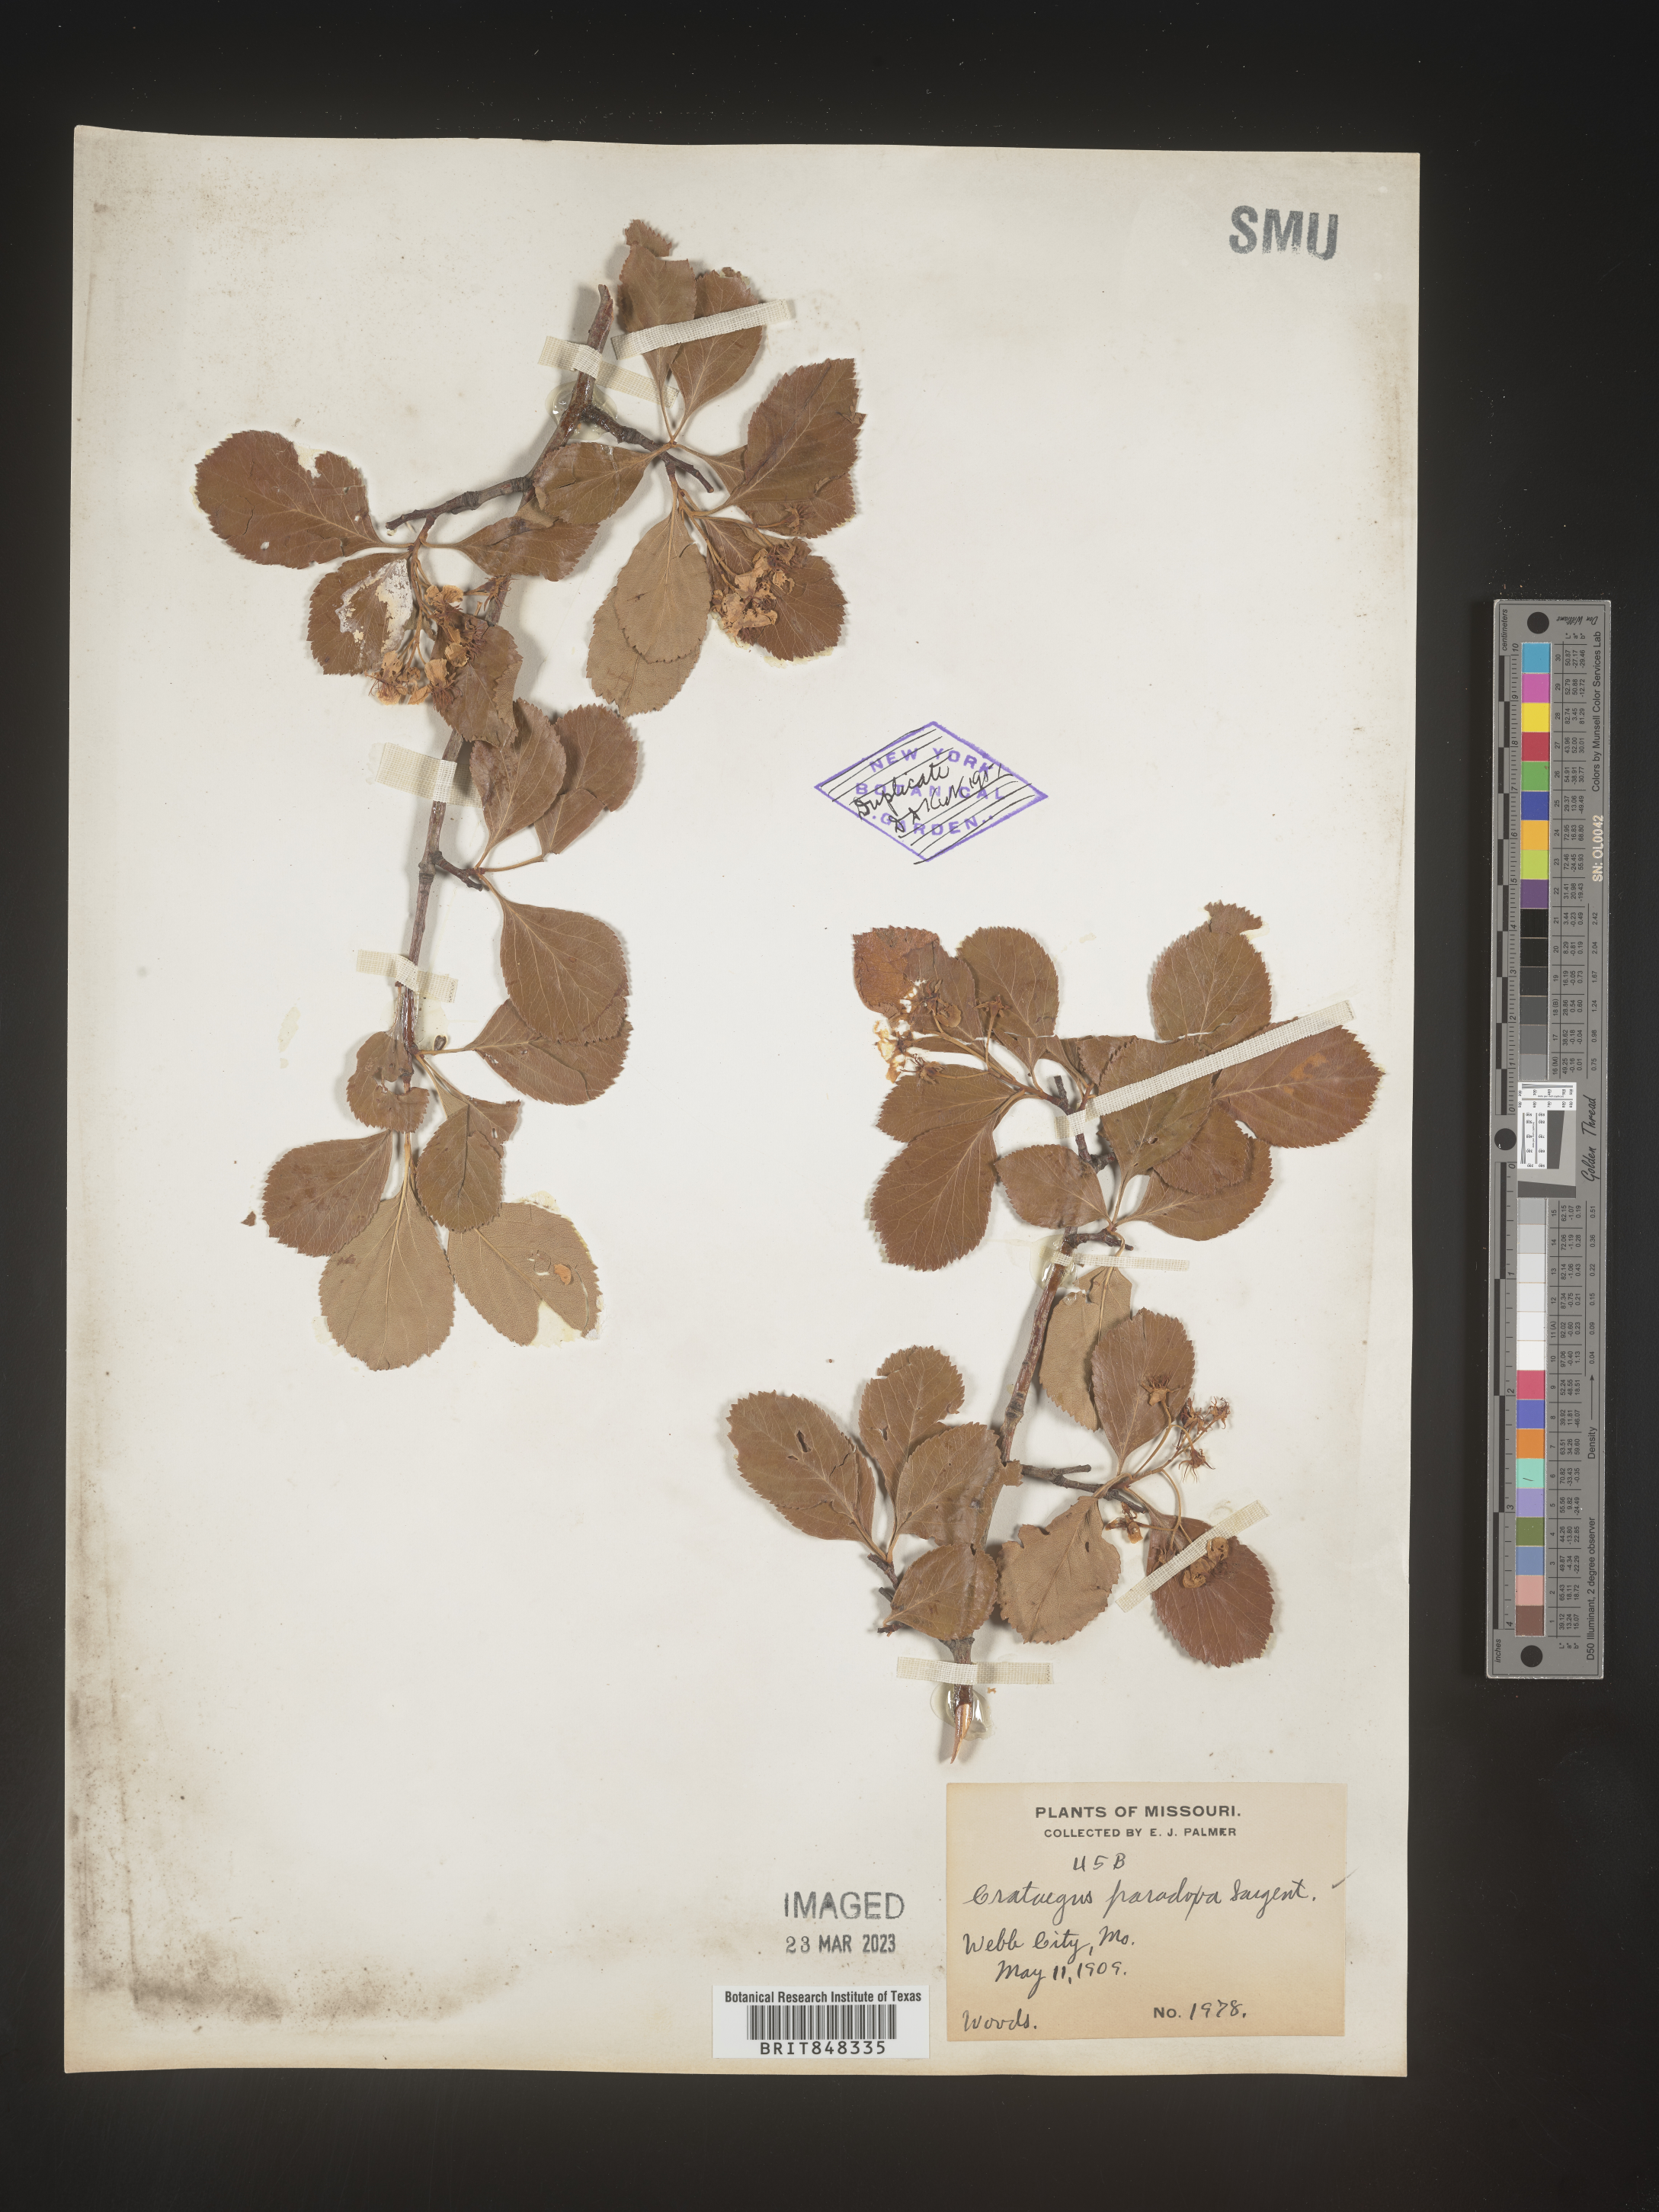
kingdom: Plantae
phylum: Tracheophyta
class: Magnoliopsida
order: Rosales
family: Rosaceae
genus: Crataegus
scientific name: Crataegus
